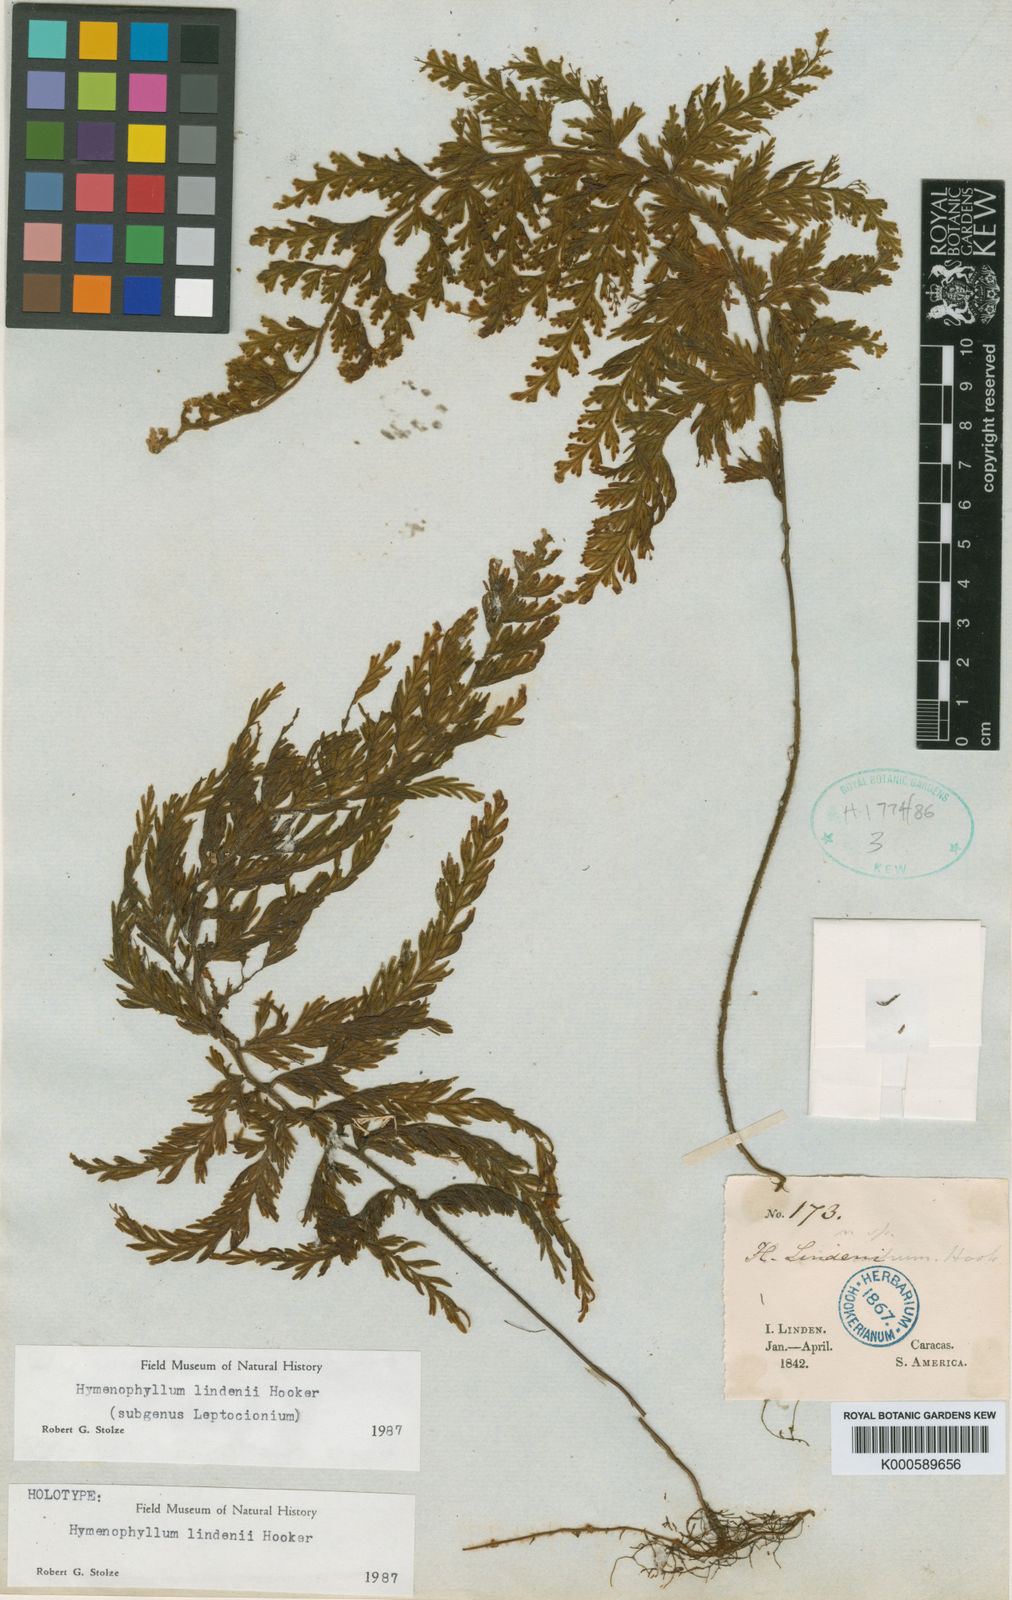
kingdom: Plantae
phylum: Tracheophyta
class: Polypodiopsida
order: Hymenophyllales
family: Hymenophyllaceae
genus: Hymenophyllum
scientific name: Hymenophyllum lindenii
